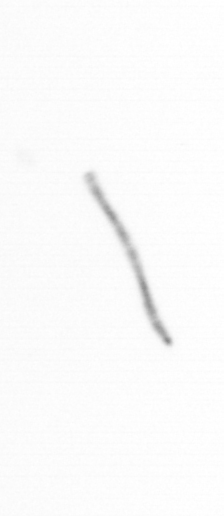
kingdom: Chromista
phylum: Ochrophyta
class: Bacillariophyceae
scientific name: Bacillariophyceae
